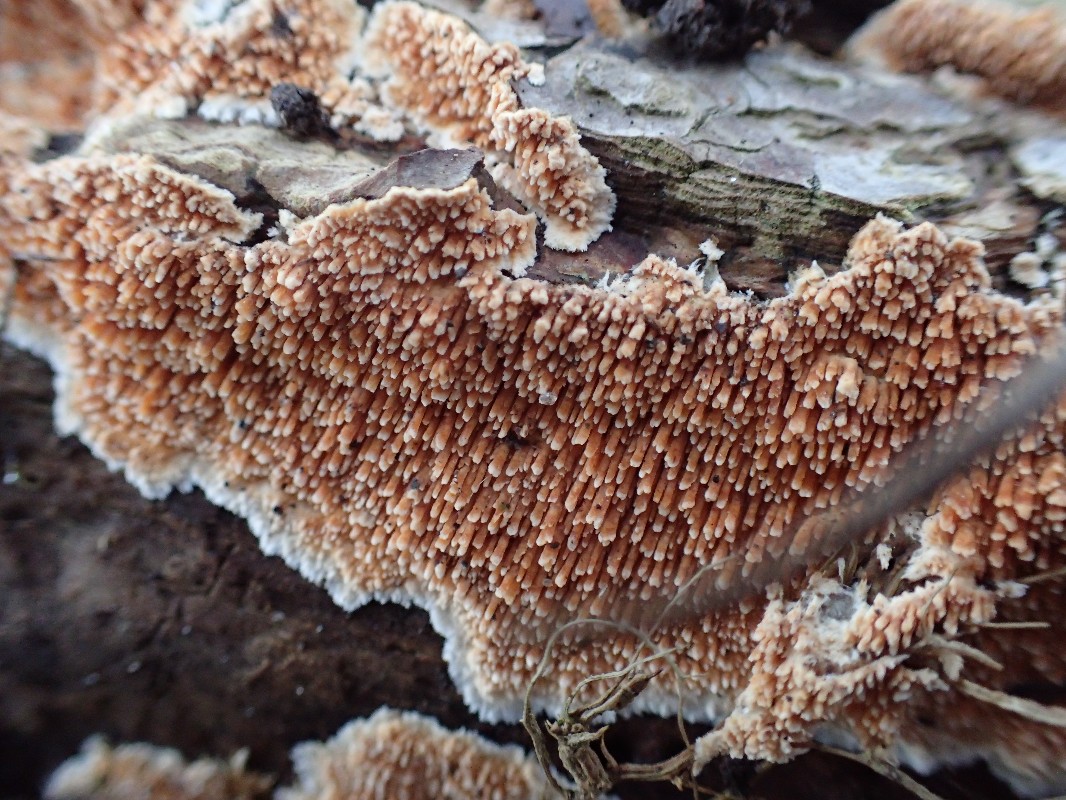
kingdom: Fungi
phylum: Basidiomycota
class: Agaricomycetes
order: Polyporales
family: Steccherinaceae
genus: Steccherinum
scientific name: Steccherinum robustius
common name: stor skønpig
